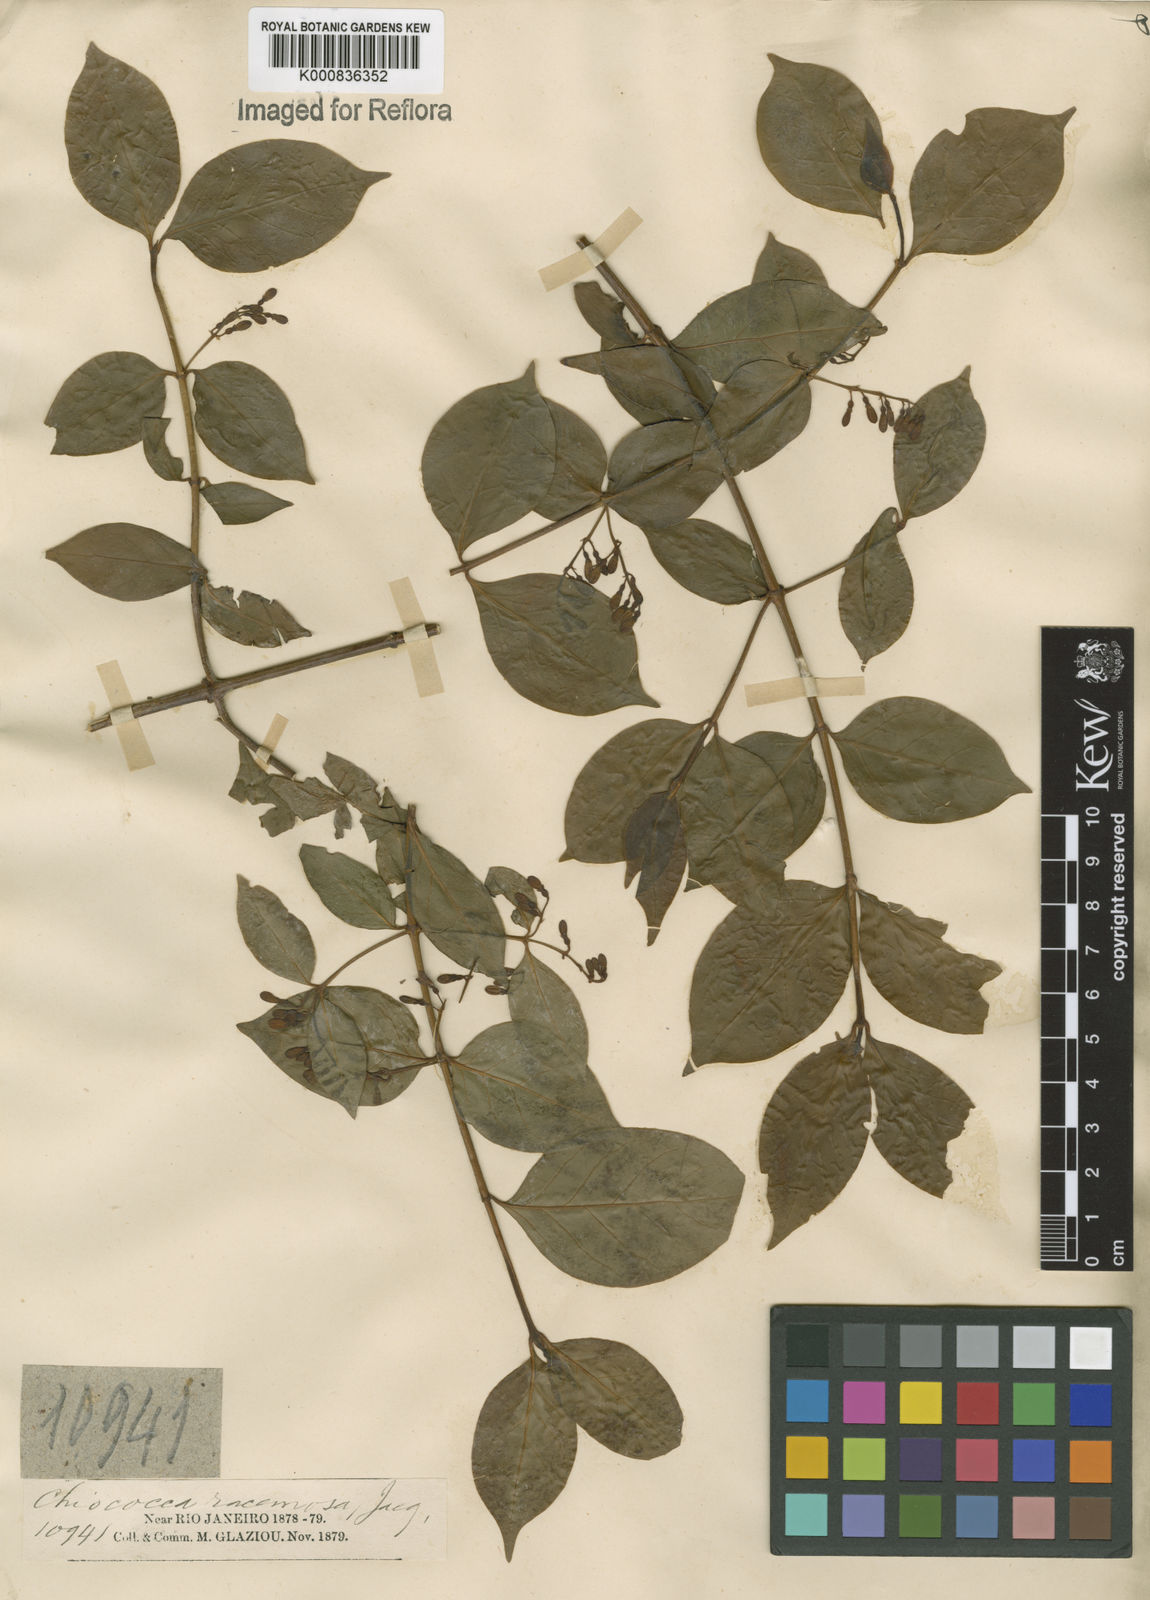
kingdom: Plantae
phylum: Tracheophyta
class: Magnoliopsida
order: Gentianales
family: Rubiaceae
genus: Chiococca
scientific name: Chiococca alba
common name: Snowberry
